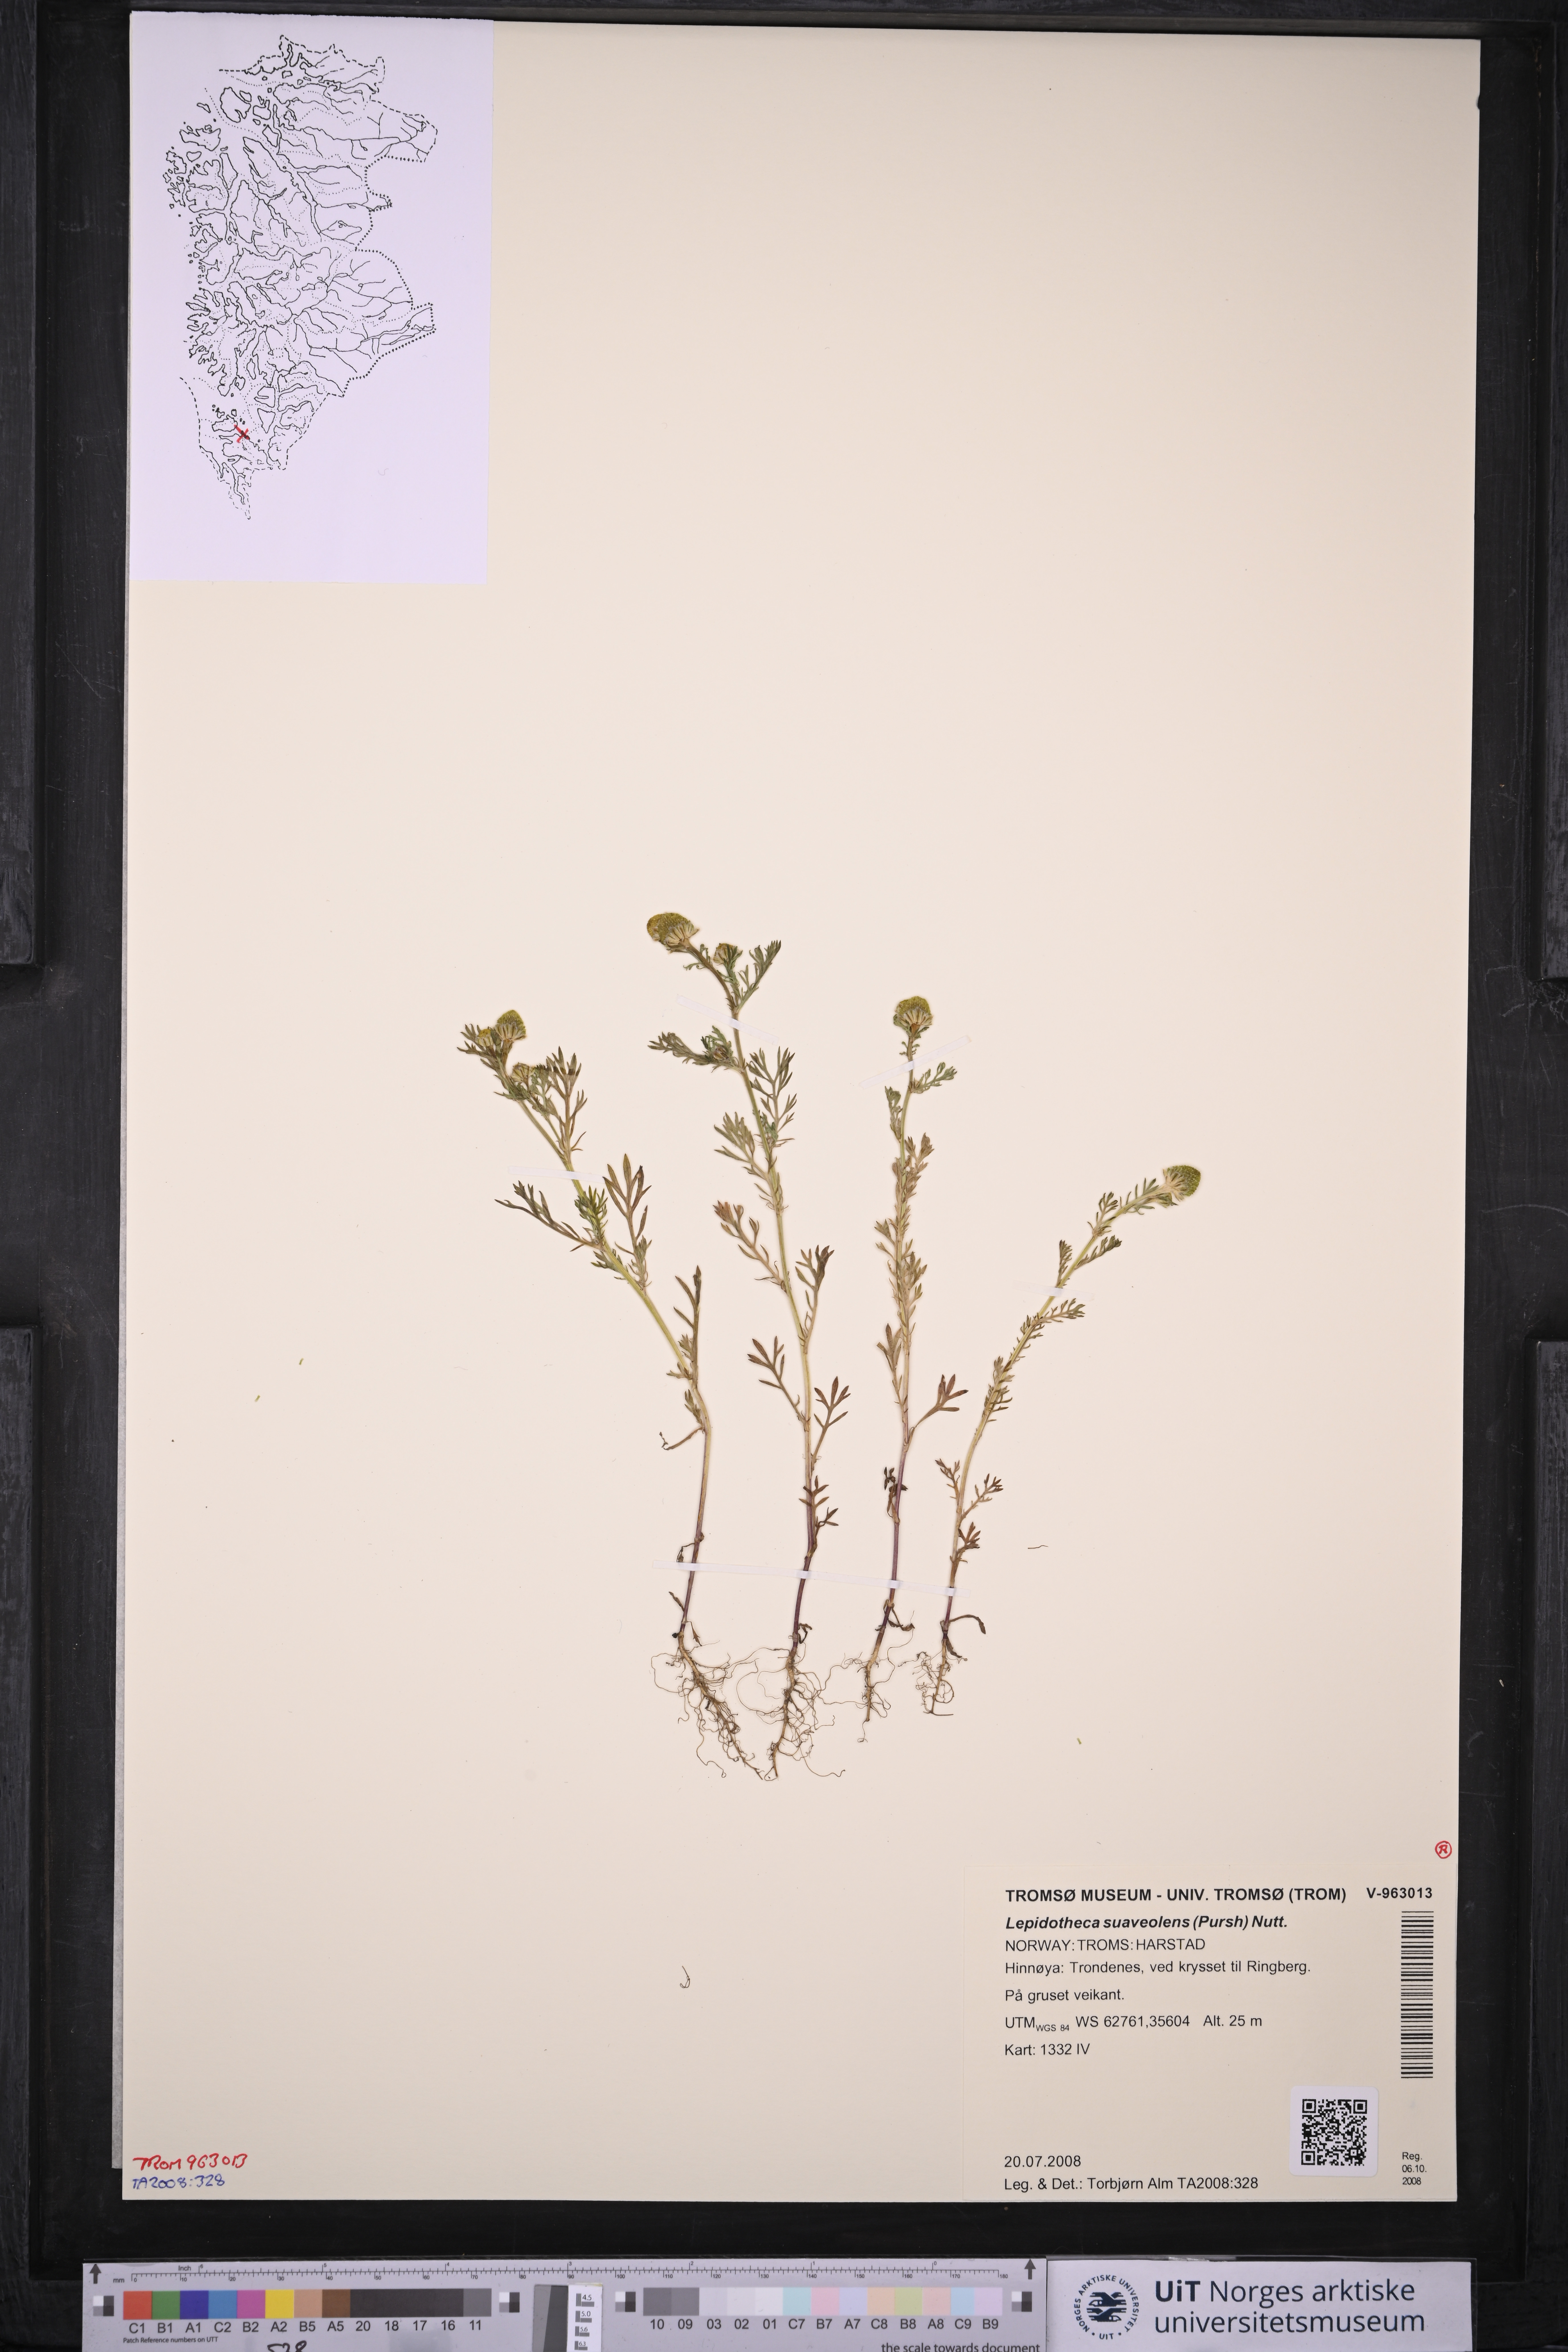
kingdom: Plantae
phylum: Tracheophyta
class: Magnoliopsida
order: Asterales
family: Asteraceae
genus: Matricaria
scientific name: Matricaria discoidea
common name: Disc mayweed
